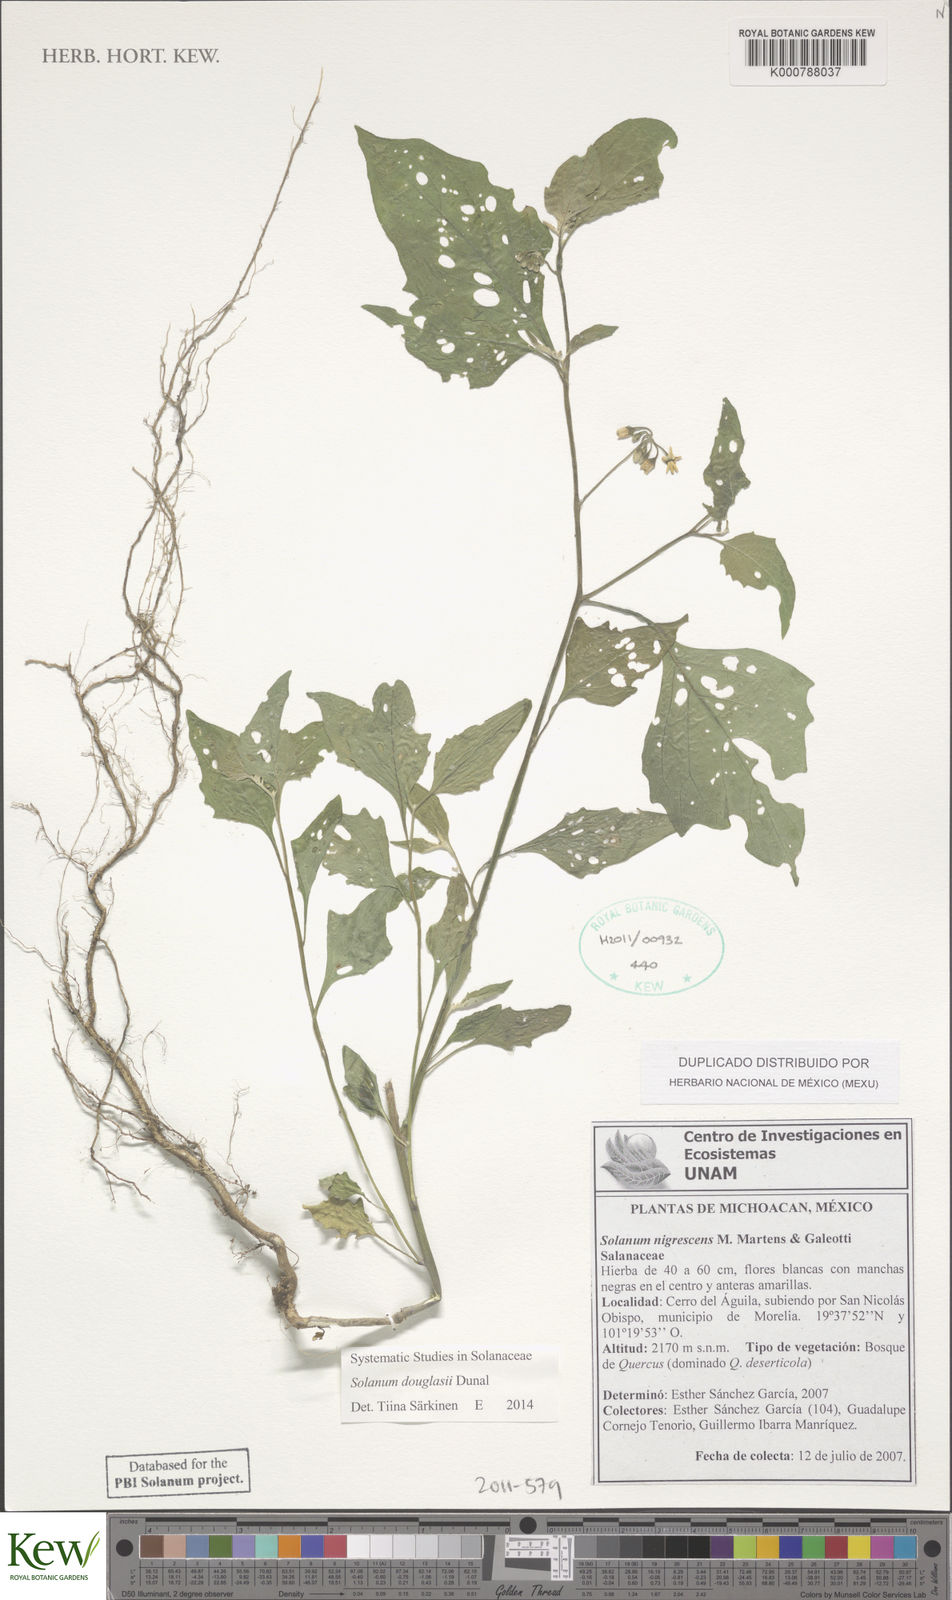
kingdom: Plantae
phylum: Tracheophyta
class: Magnoliopsida
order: Solanales
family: Solanaceae
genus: Solanum
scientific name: Solanum macrotonum
